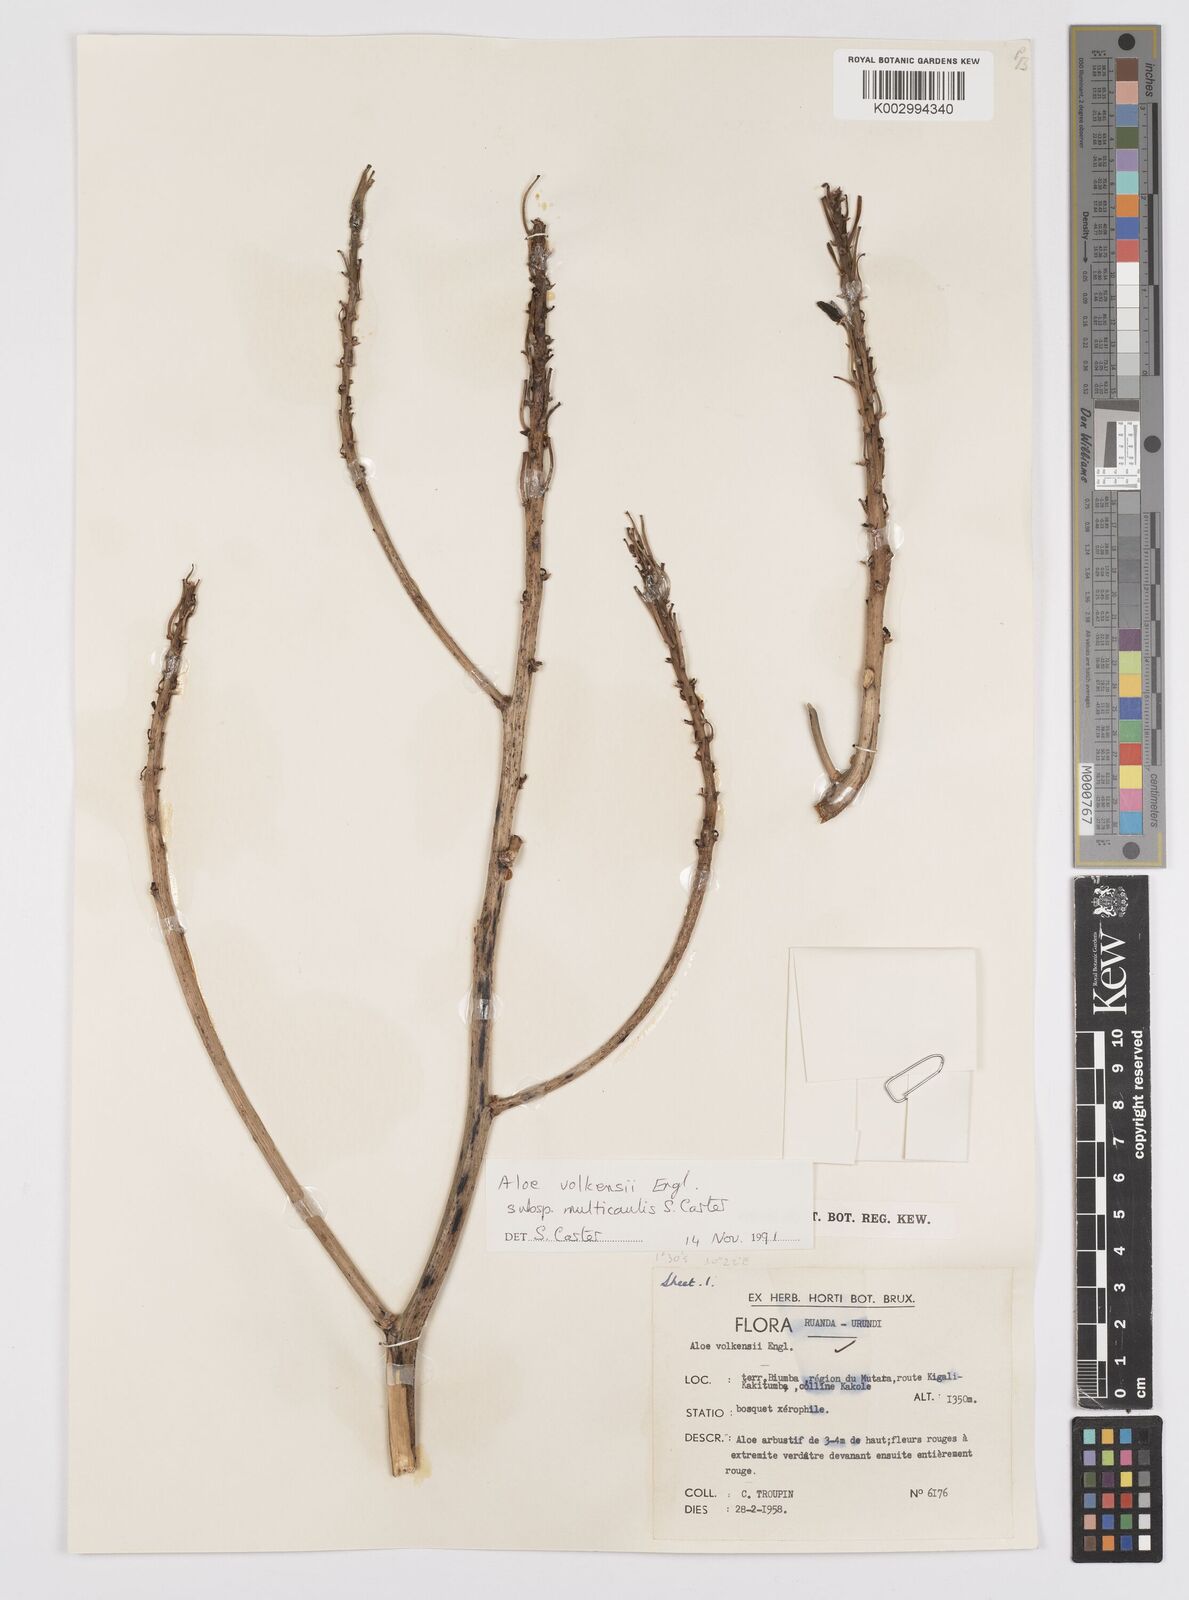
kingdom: Plantae
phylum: Tracheophyta
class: Liliopsida
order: Asparagales
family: Asphodelaceae
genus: Aloe
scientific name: Aloe volkensii
